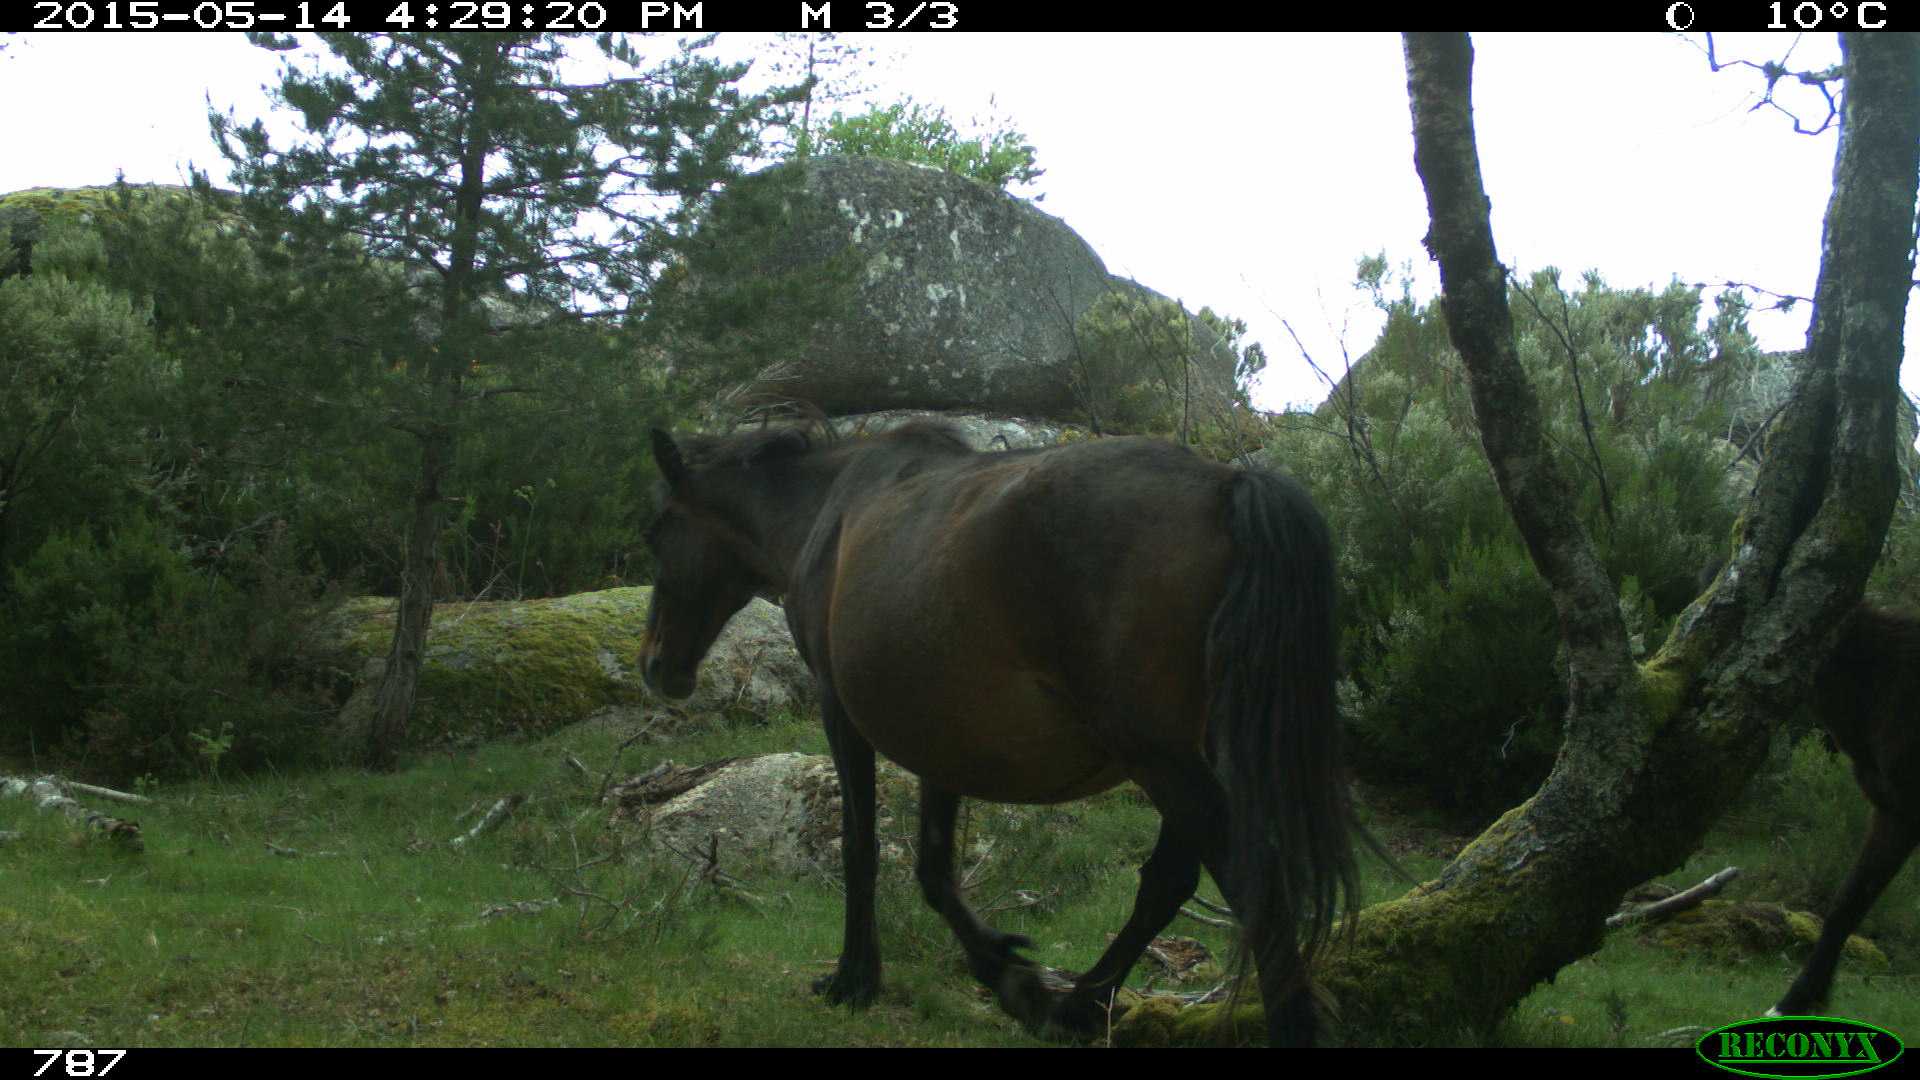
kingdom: Animalia
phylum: Chordata
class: Mammalia
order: Perissodactyla
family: Equidae
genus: Equus
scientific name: Equus caballus
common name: Horse
